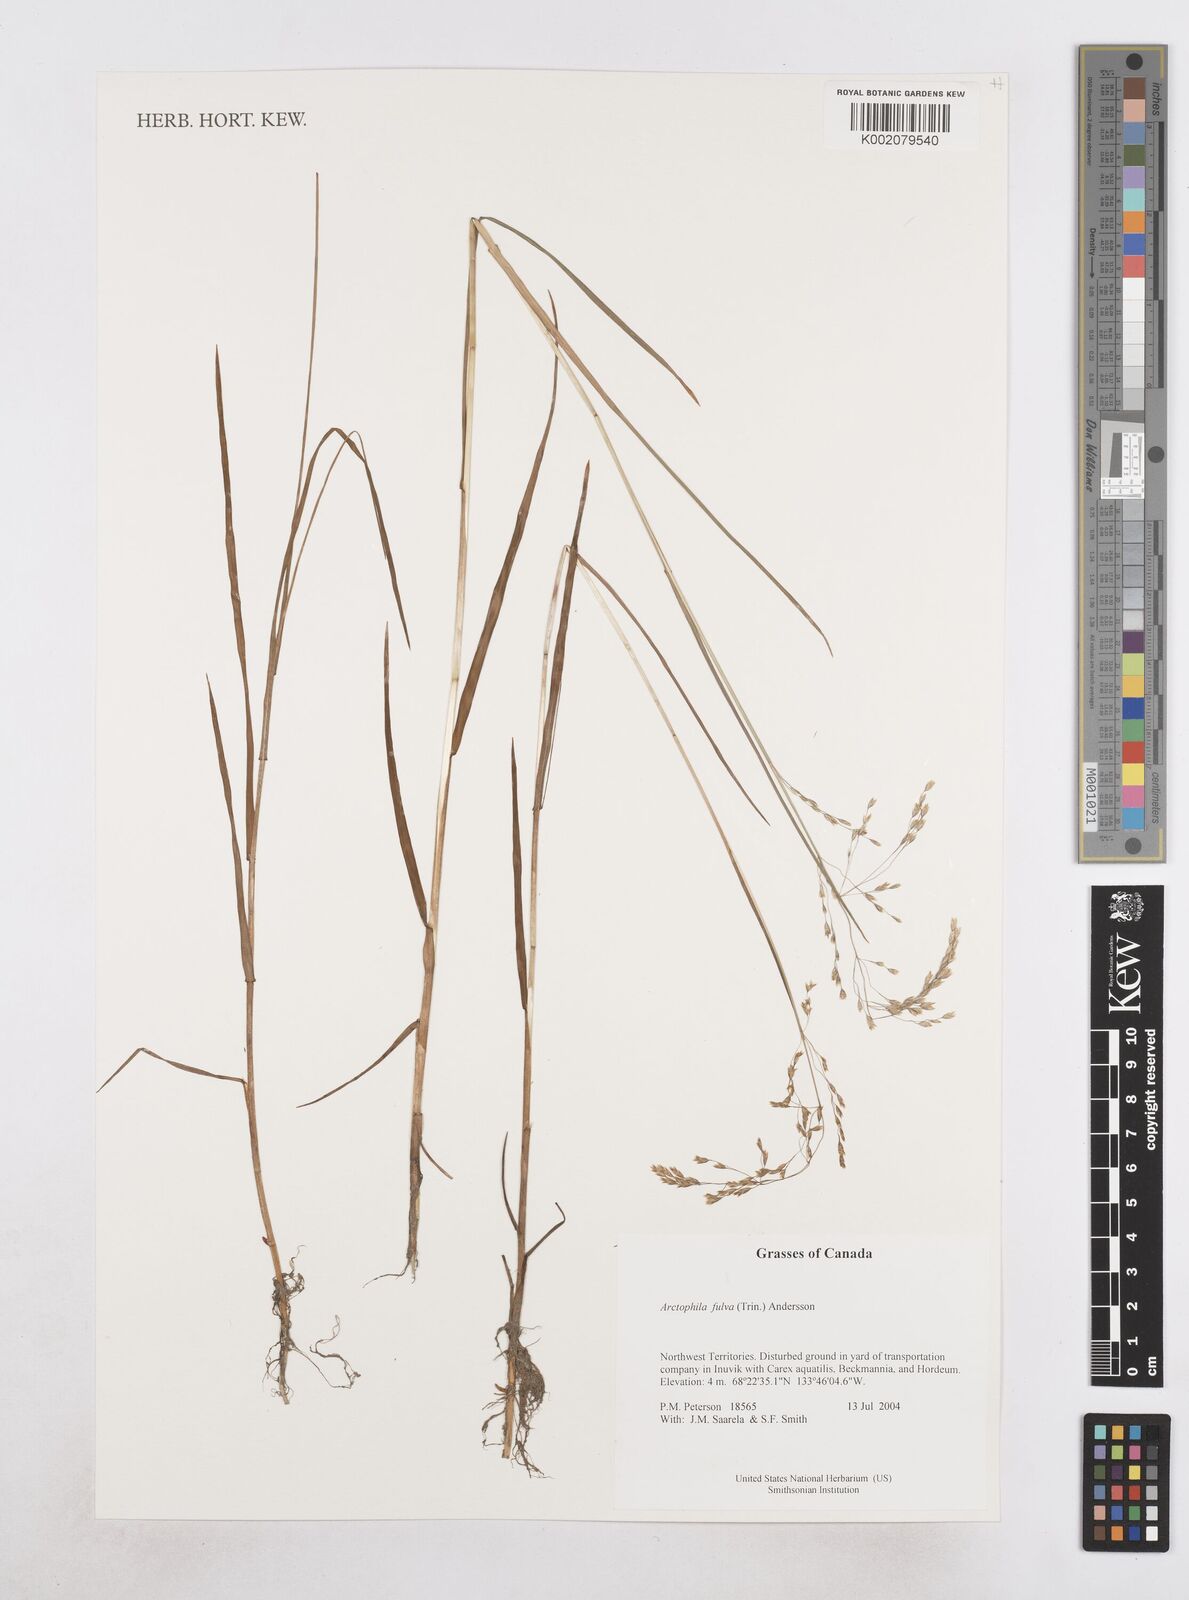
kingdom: Plantae
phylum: Tracheophyta
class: Liliopsida
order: Poales
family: Poaceae
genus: Dupontia
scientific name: Dupontia fulva
